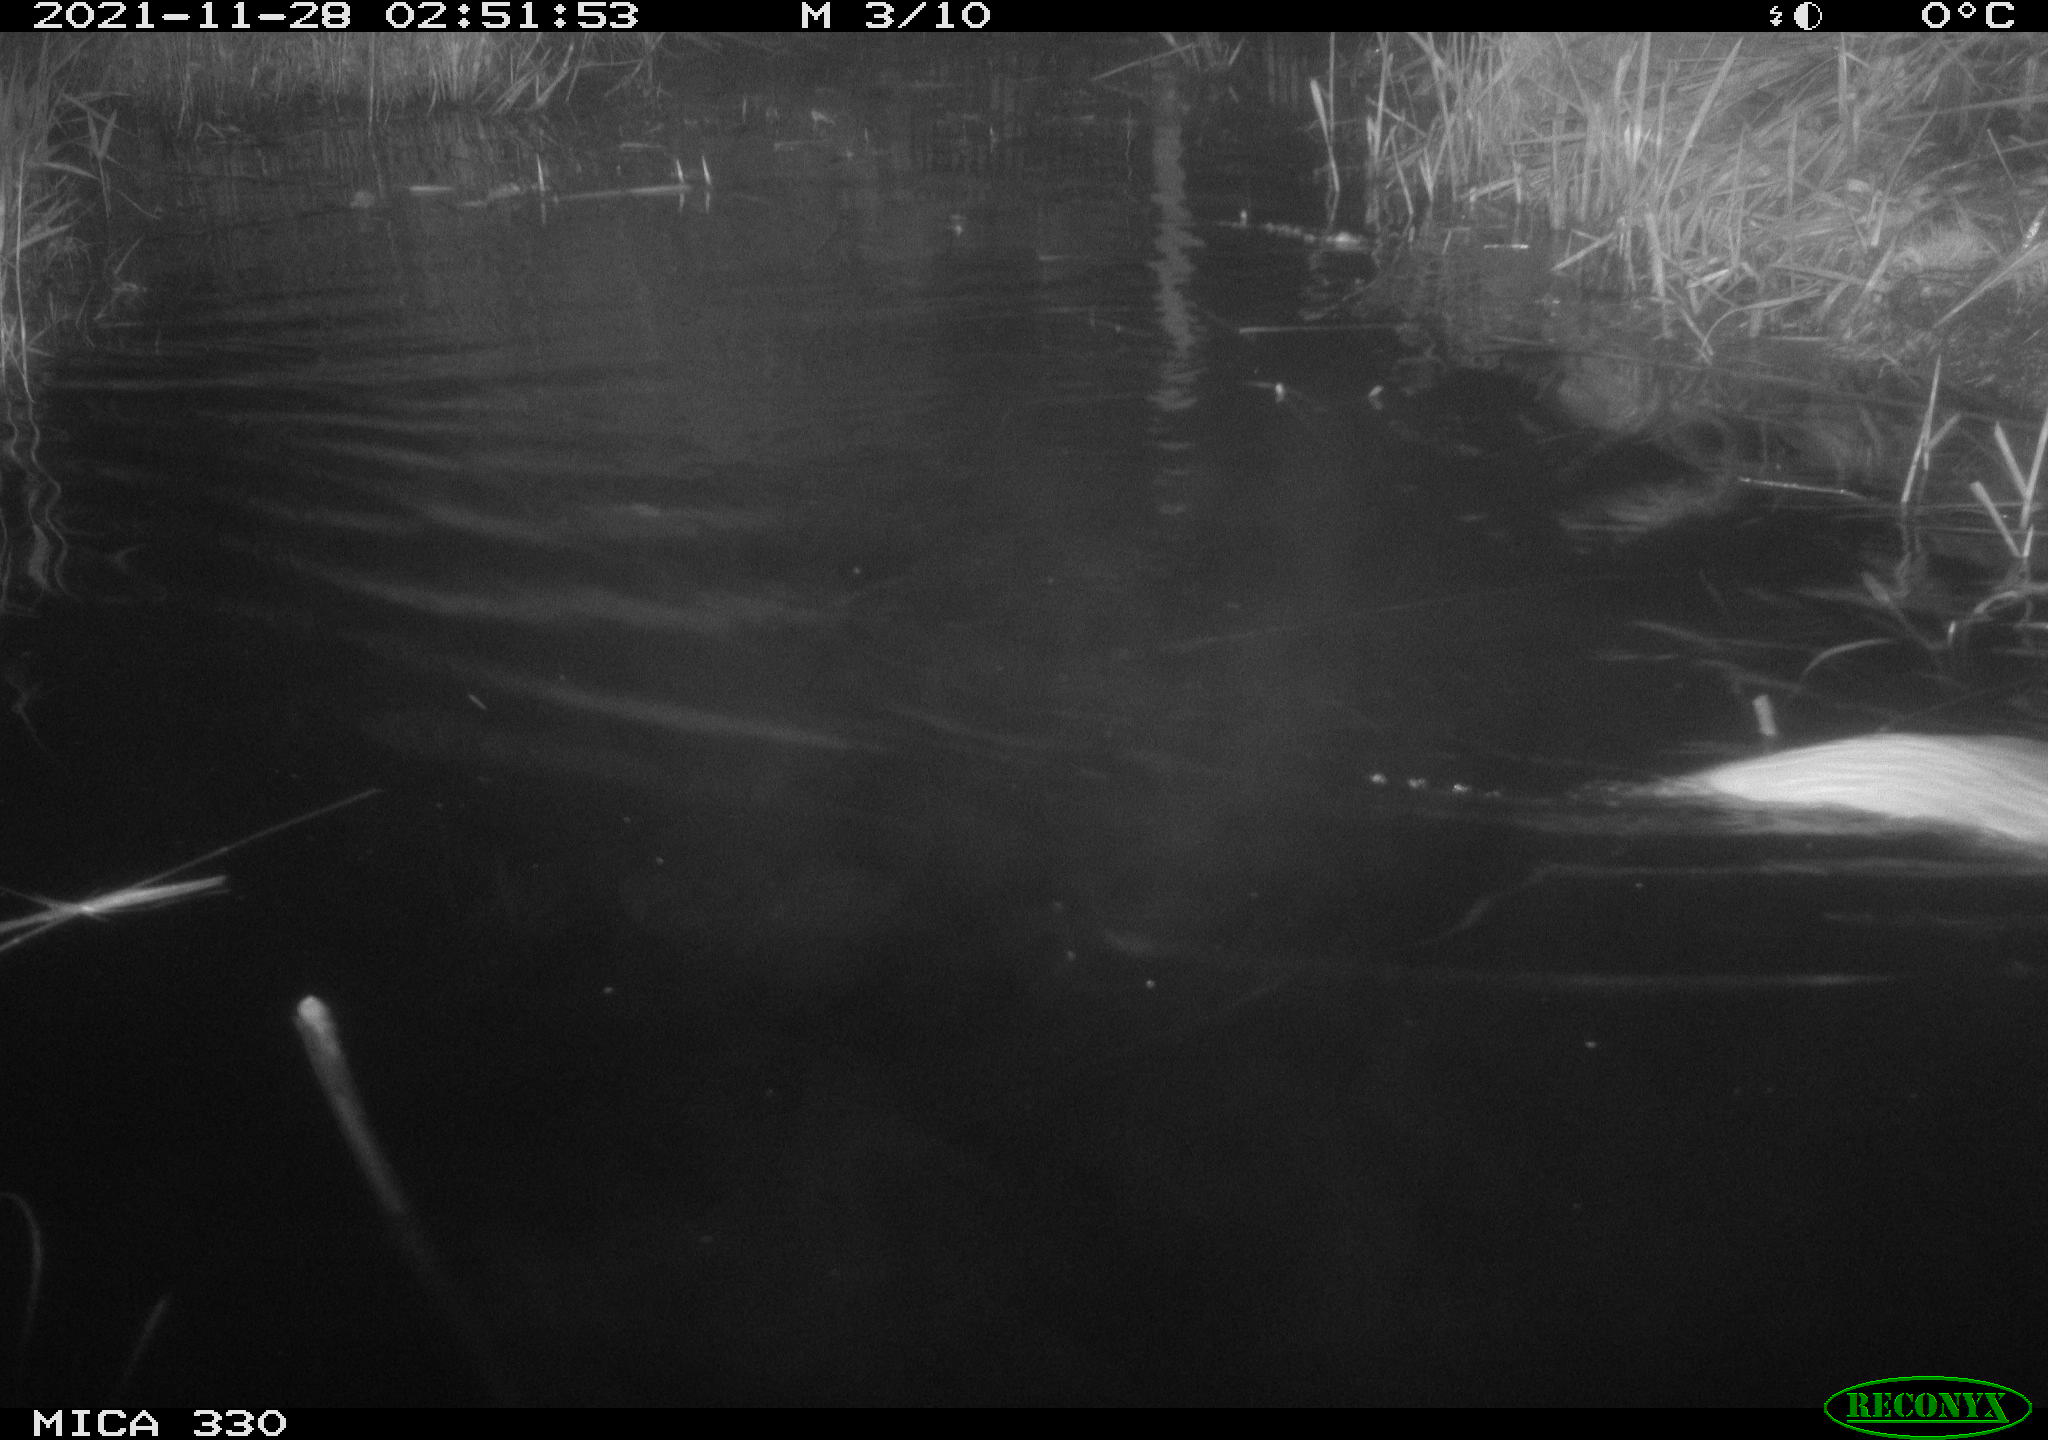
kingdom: Animalia
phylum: Chordata
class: Mammalia
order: Carnivora
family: Mustelidae
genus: Lutra
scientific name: Lutra lutra
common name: European otter
